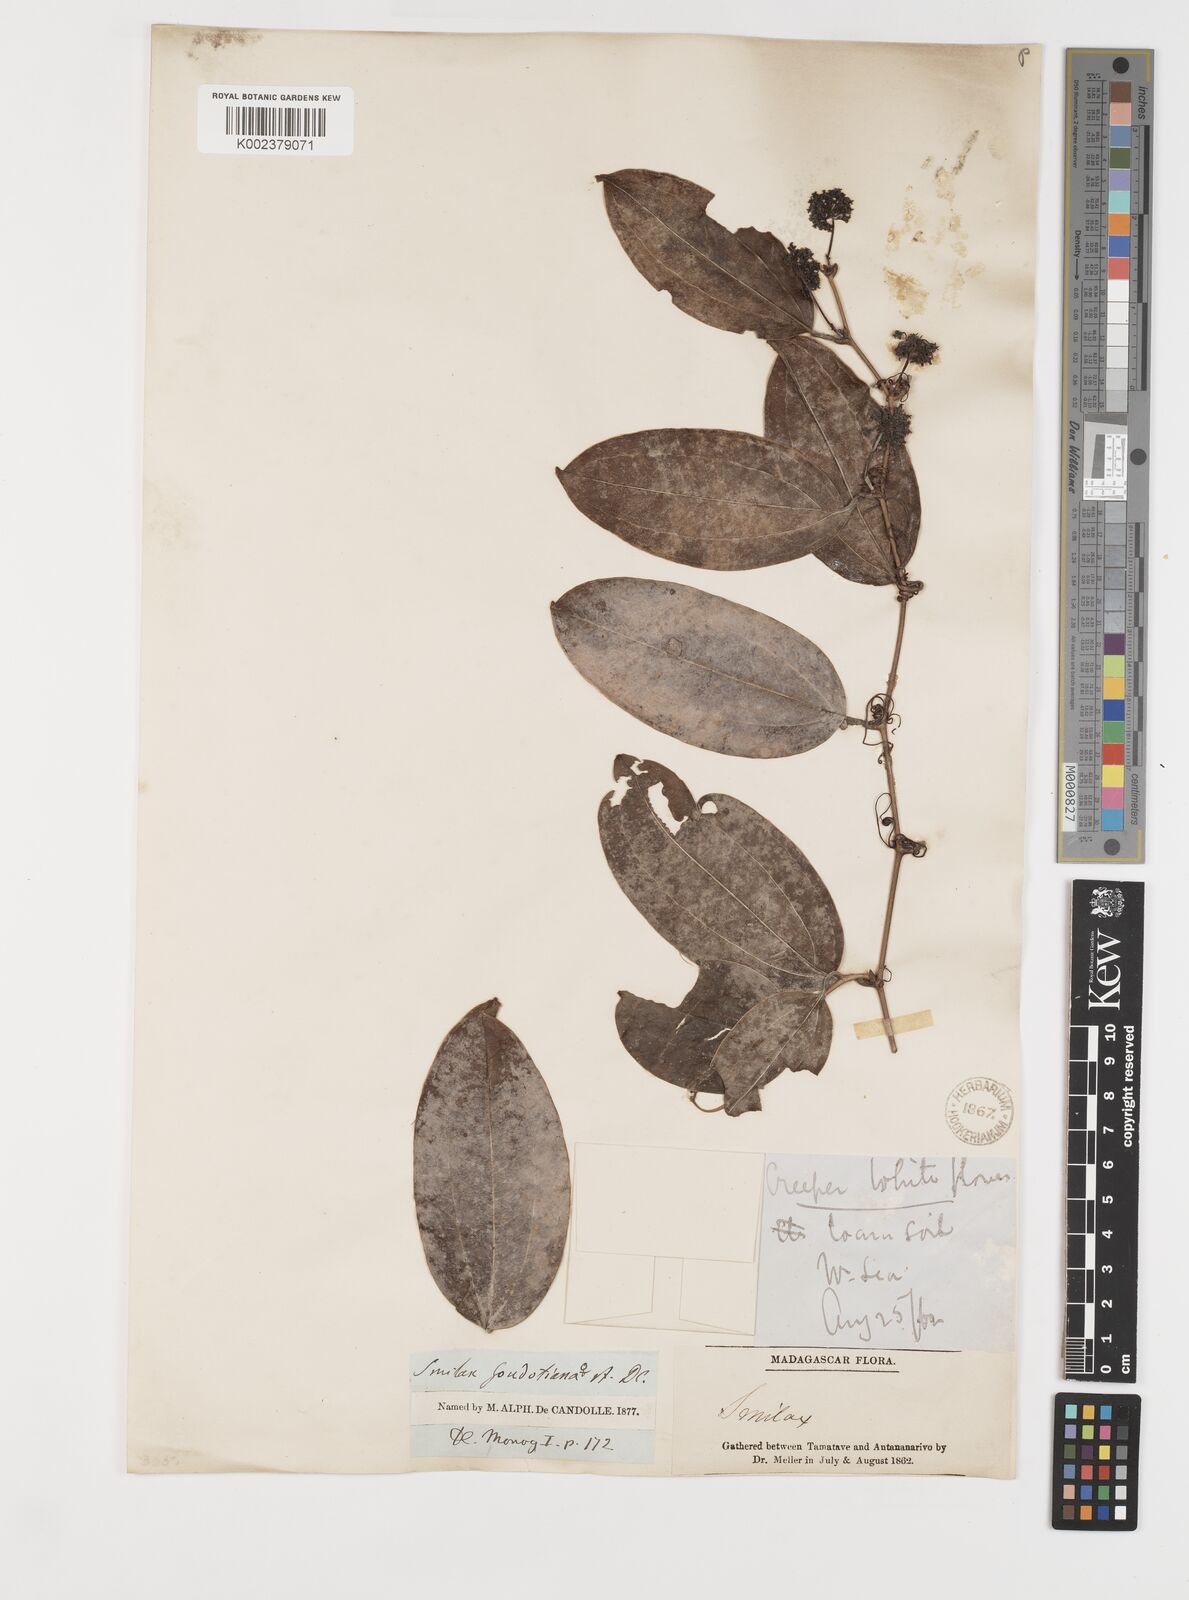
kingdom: Plantae
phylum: Tracheophyta
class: Liliopsida
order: Liliales
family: Smilacaceae
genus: Smilax
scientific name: Smilax anceps
